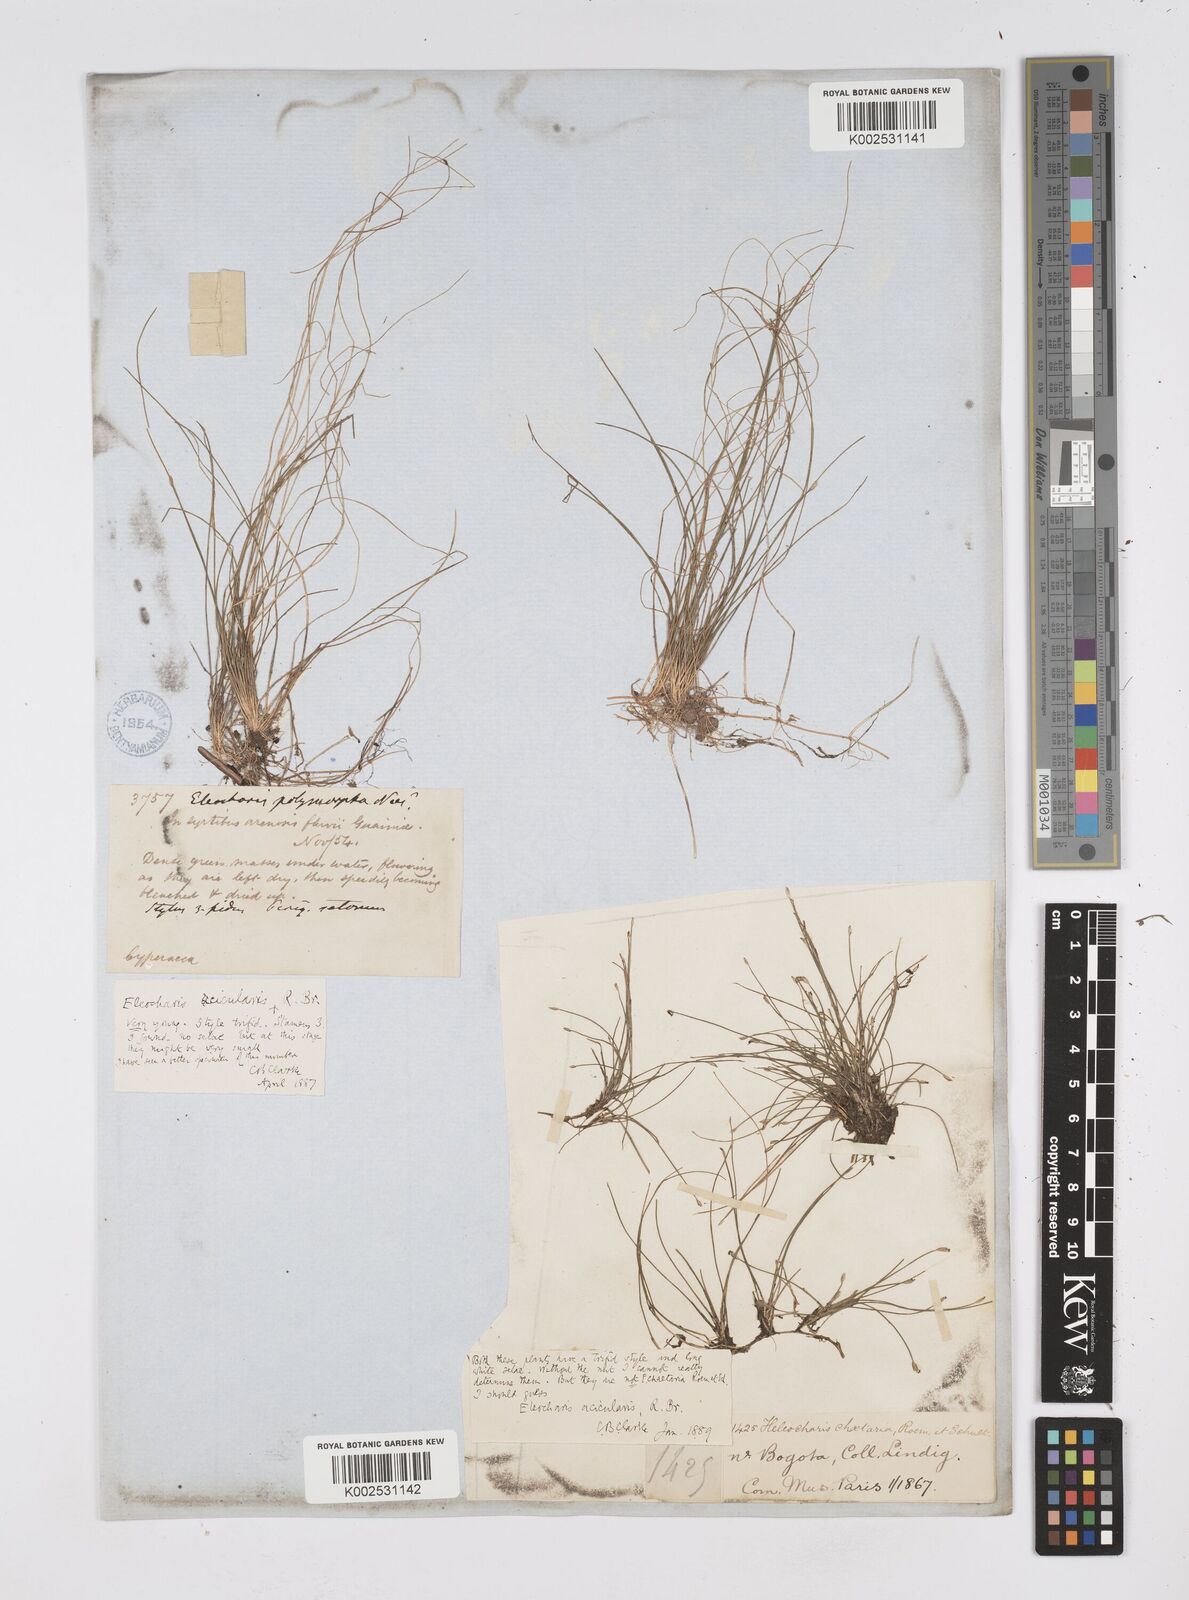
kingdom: Plantae
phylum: Tracheophyta
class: Liliopsida
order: Poales
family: Cyperaceae
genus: Eleocharis
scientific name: Eleocharis acicularis
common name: Needle spike-rush
